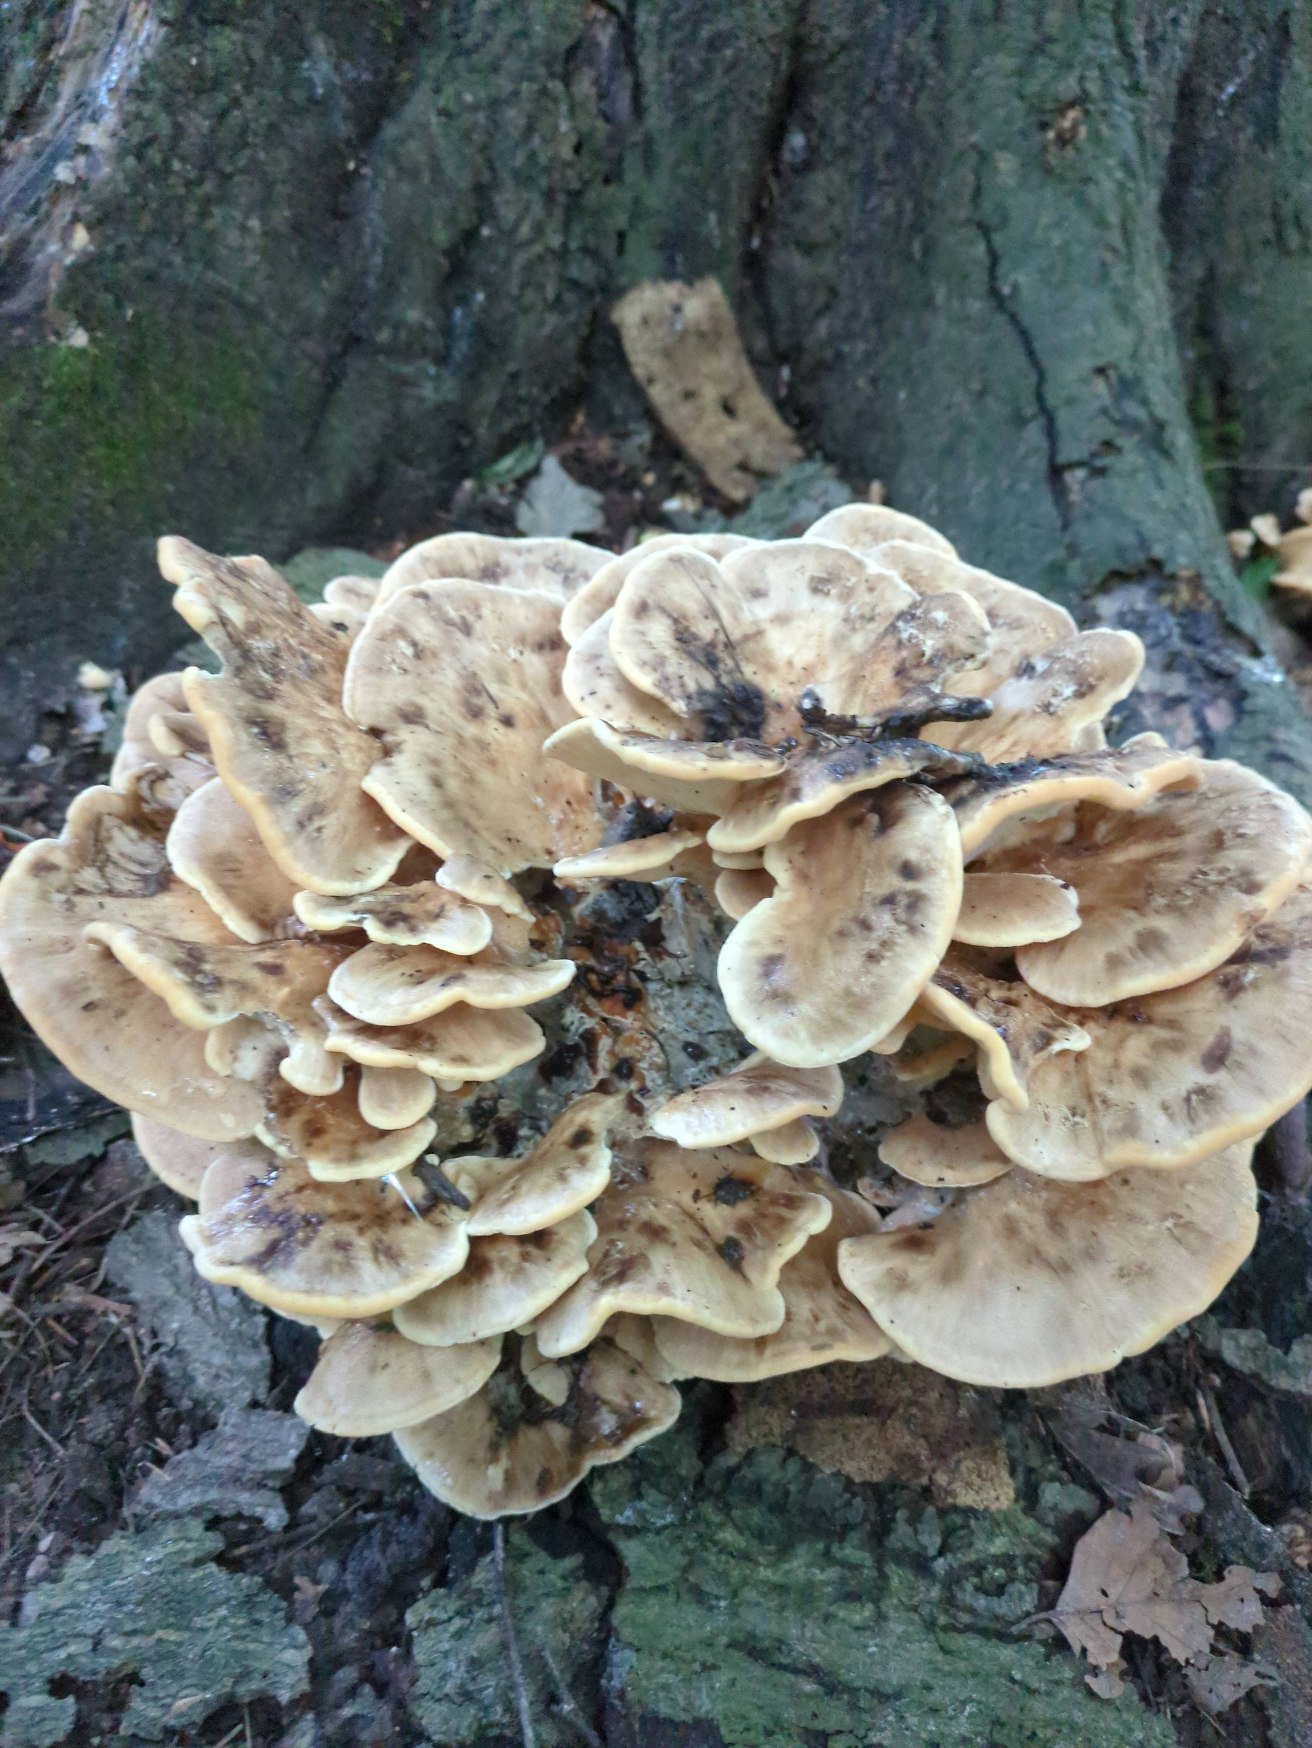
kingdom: Fungi
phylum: Basidiomycota
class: Agaricomycetes
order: Polyporales
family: Meripilaceae
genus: Meripilus
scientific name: Meripilus giganteus
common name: Kæmpeporesvamp
